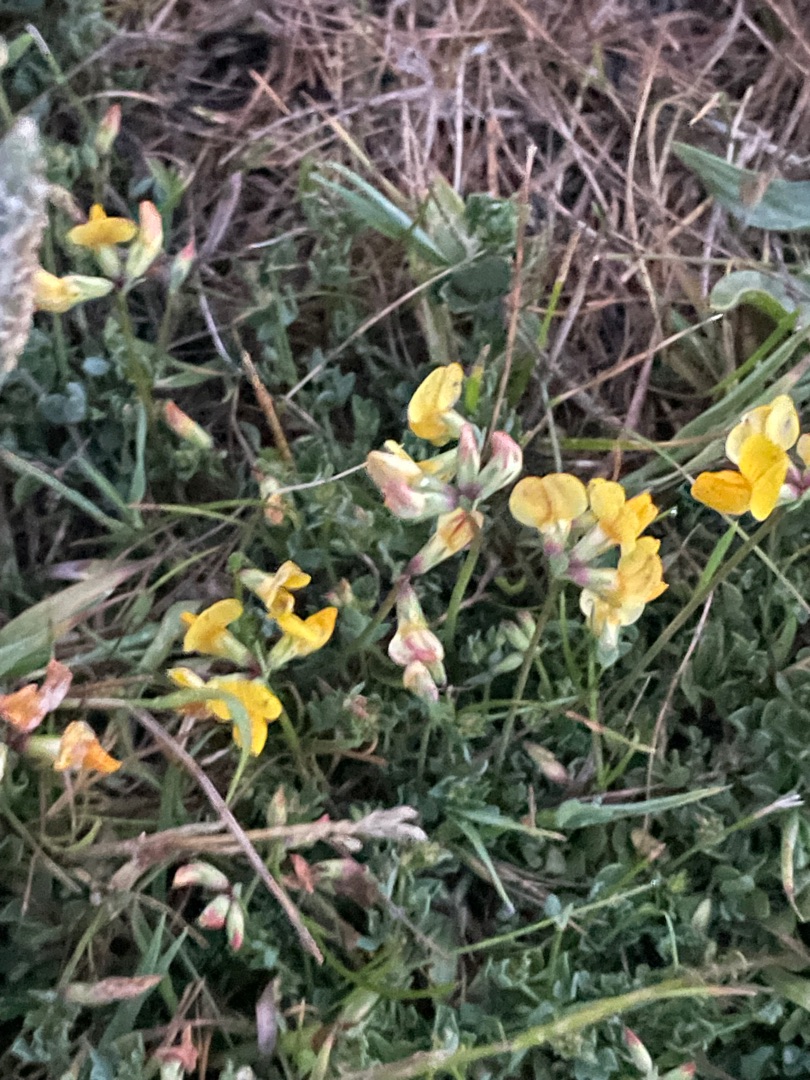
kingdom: Plantae
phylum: Tracheophyta
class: Magnoliopsida
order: Fabales
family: Fabaceae
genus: Lotus
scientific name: Lotus corniculatus
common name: Almindelig kællingetand
